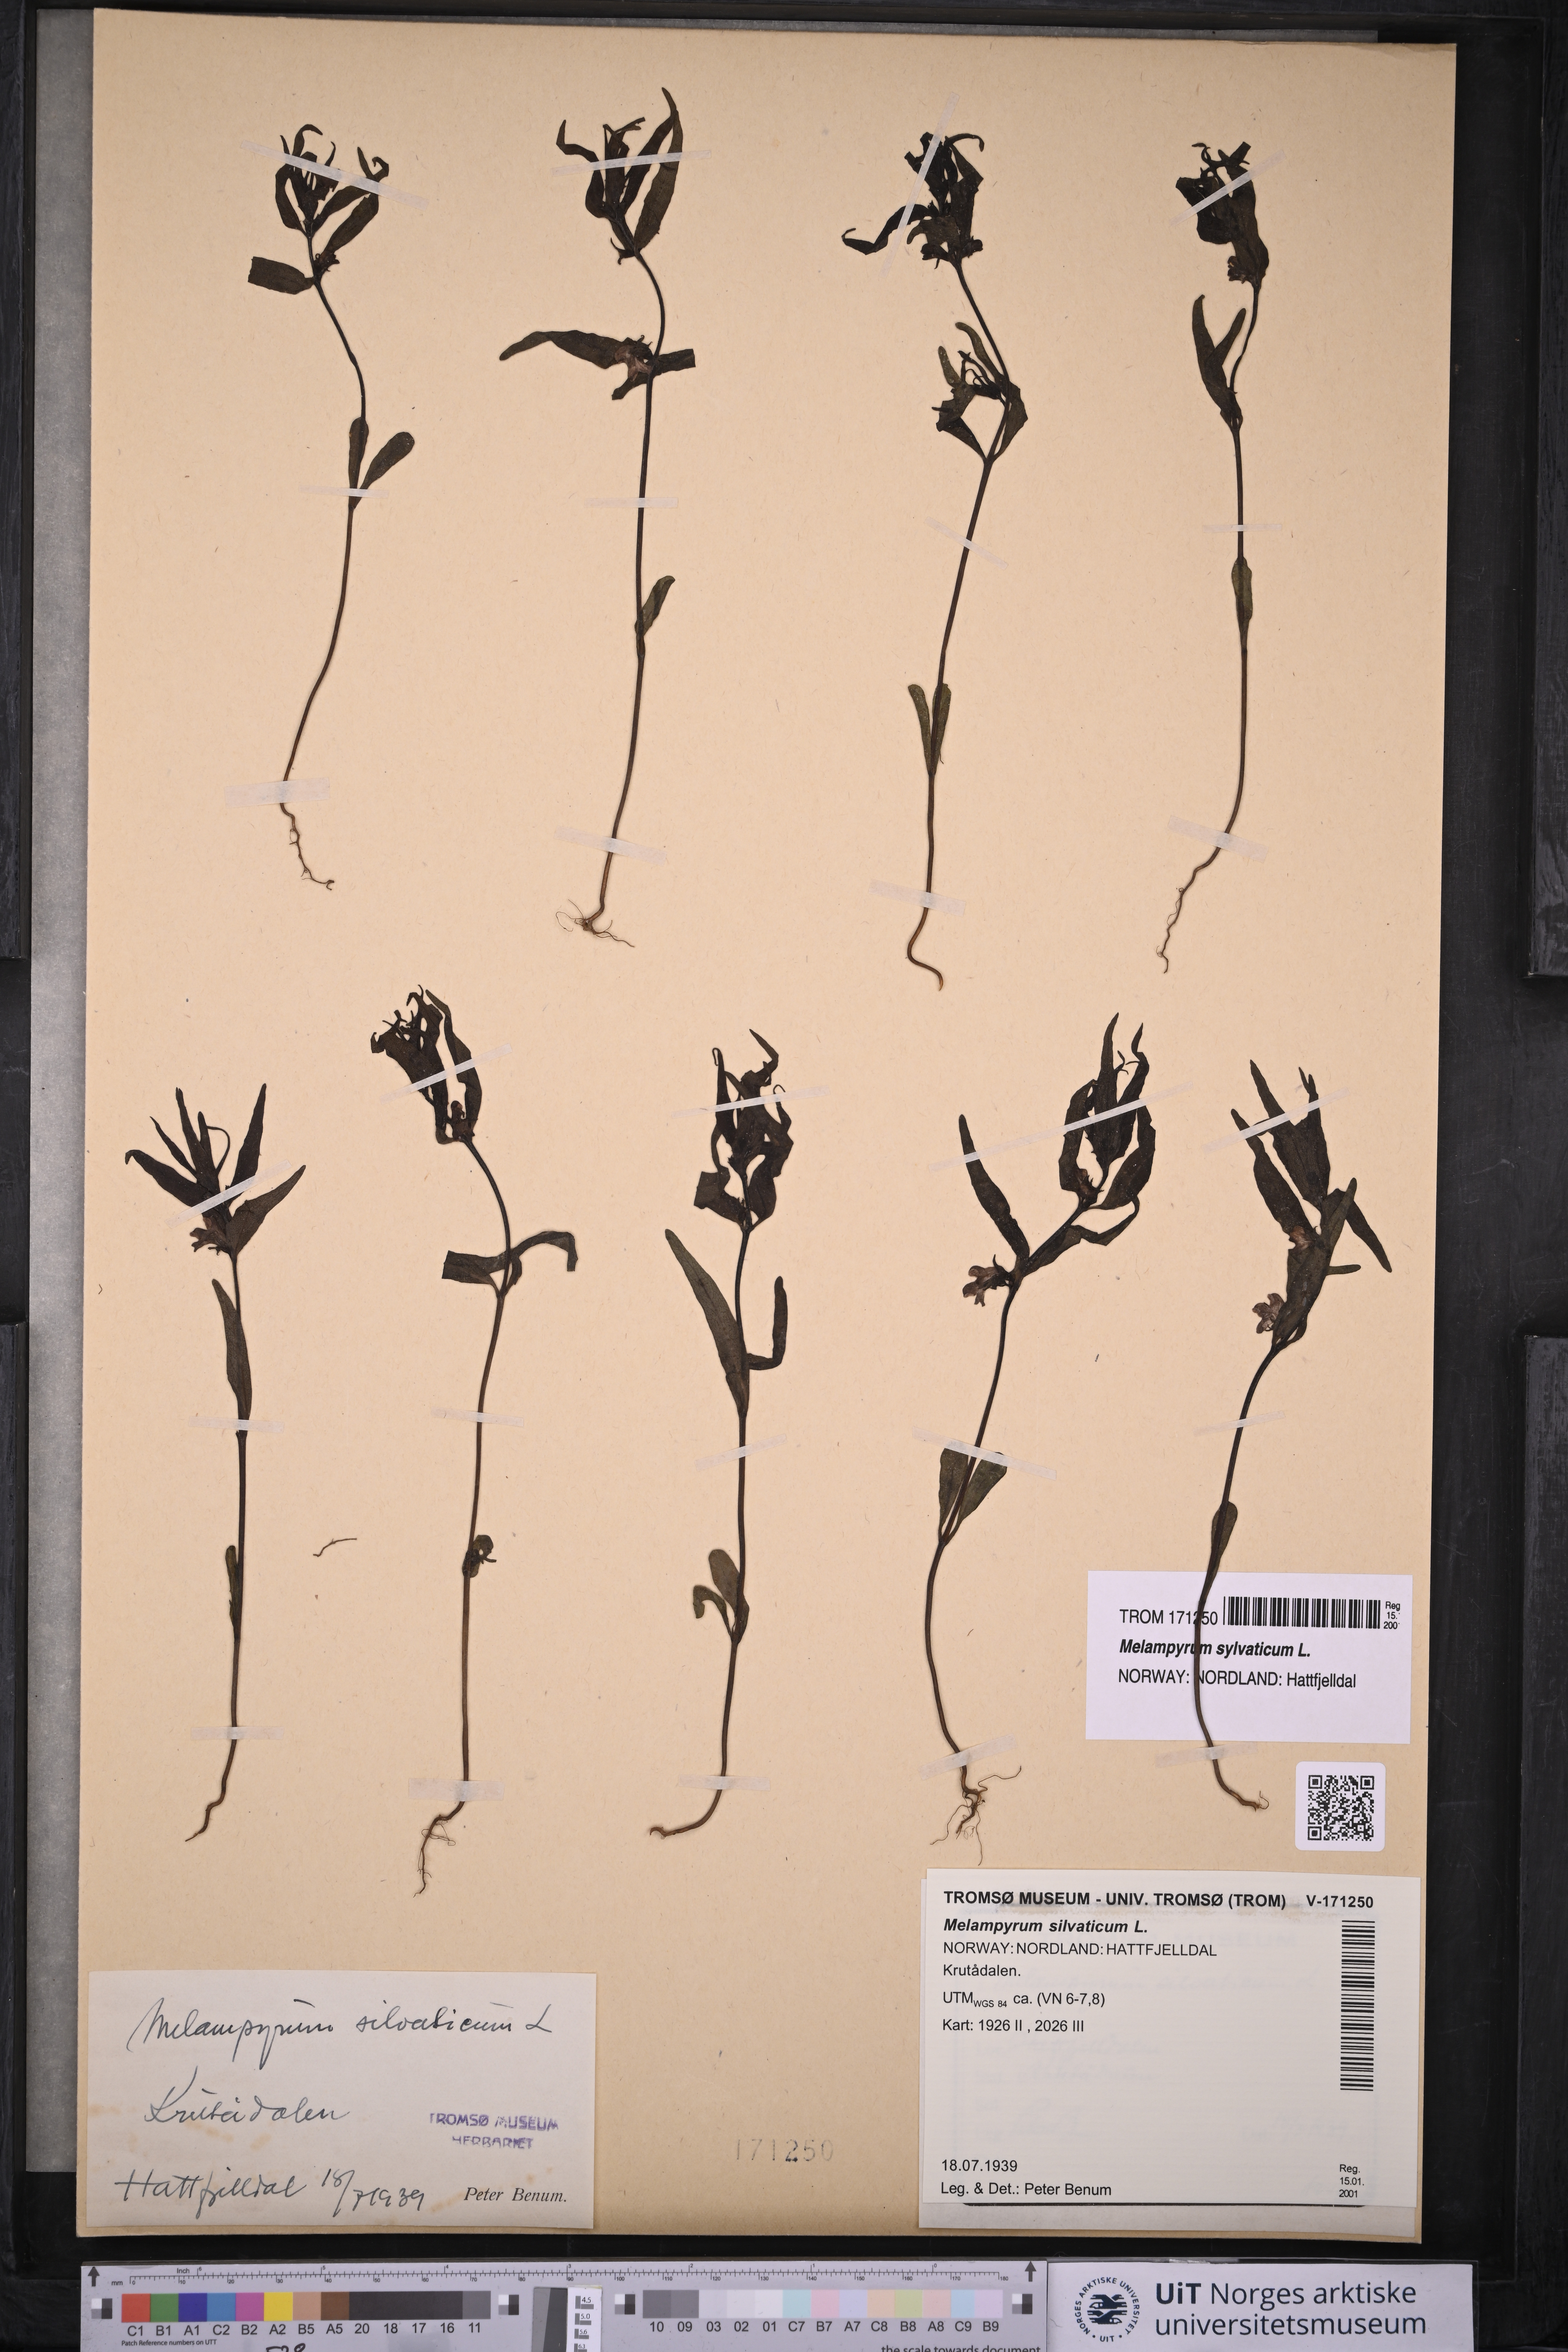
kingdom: Plantae
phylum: Tracheophyta
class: Magnoliopsida
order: Lamiales
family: Orobanchaceae
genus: Melampyrum
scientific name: Melampyrum sylvaticum
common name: Small cow-wheat
